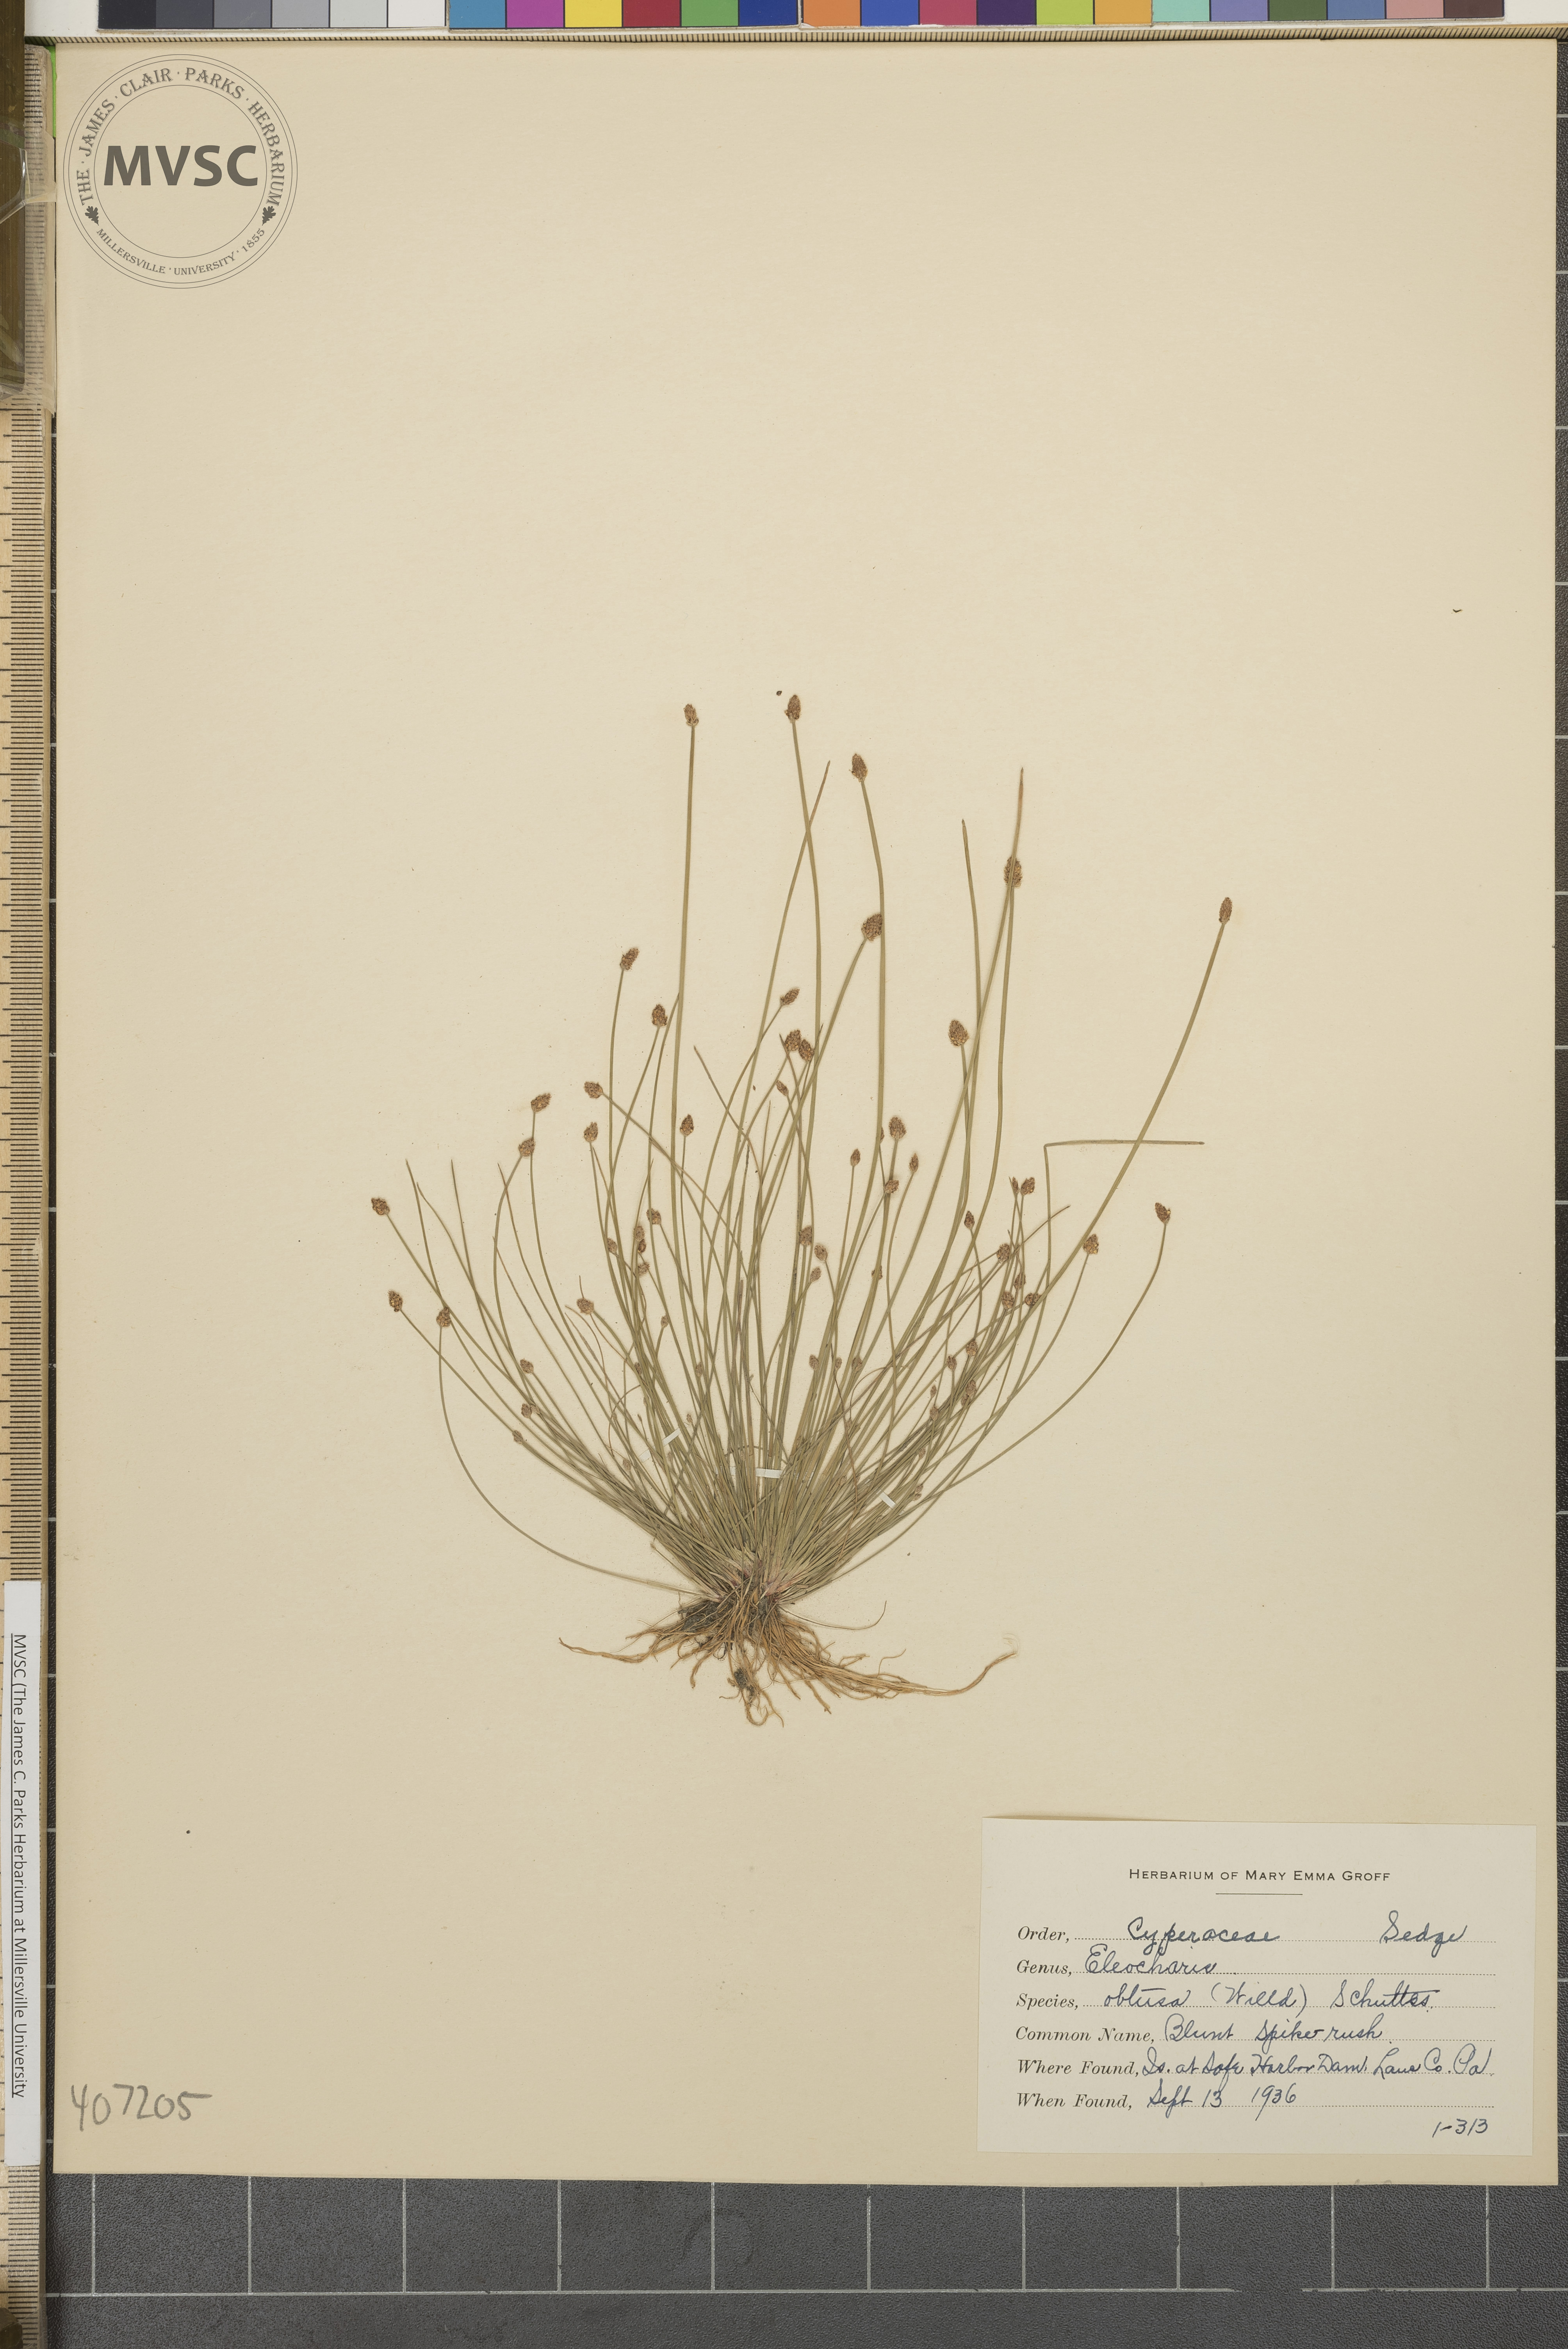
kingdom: Plantae
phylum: Tracheophyta
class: Liliopsida
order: Poales
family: Cyperaceae
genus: Eleocharis
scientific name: Eleocharis obtusa
